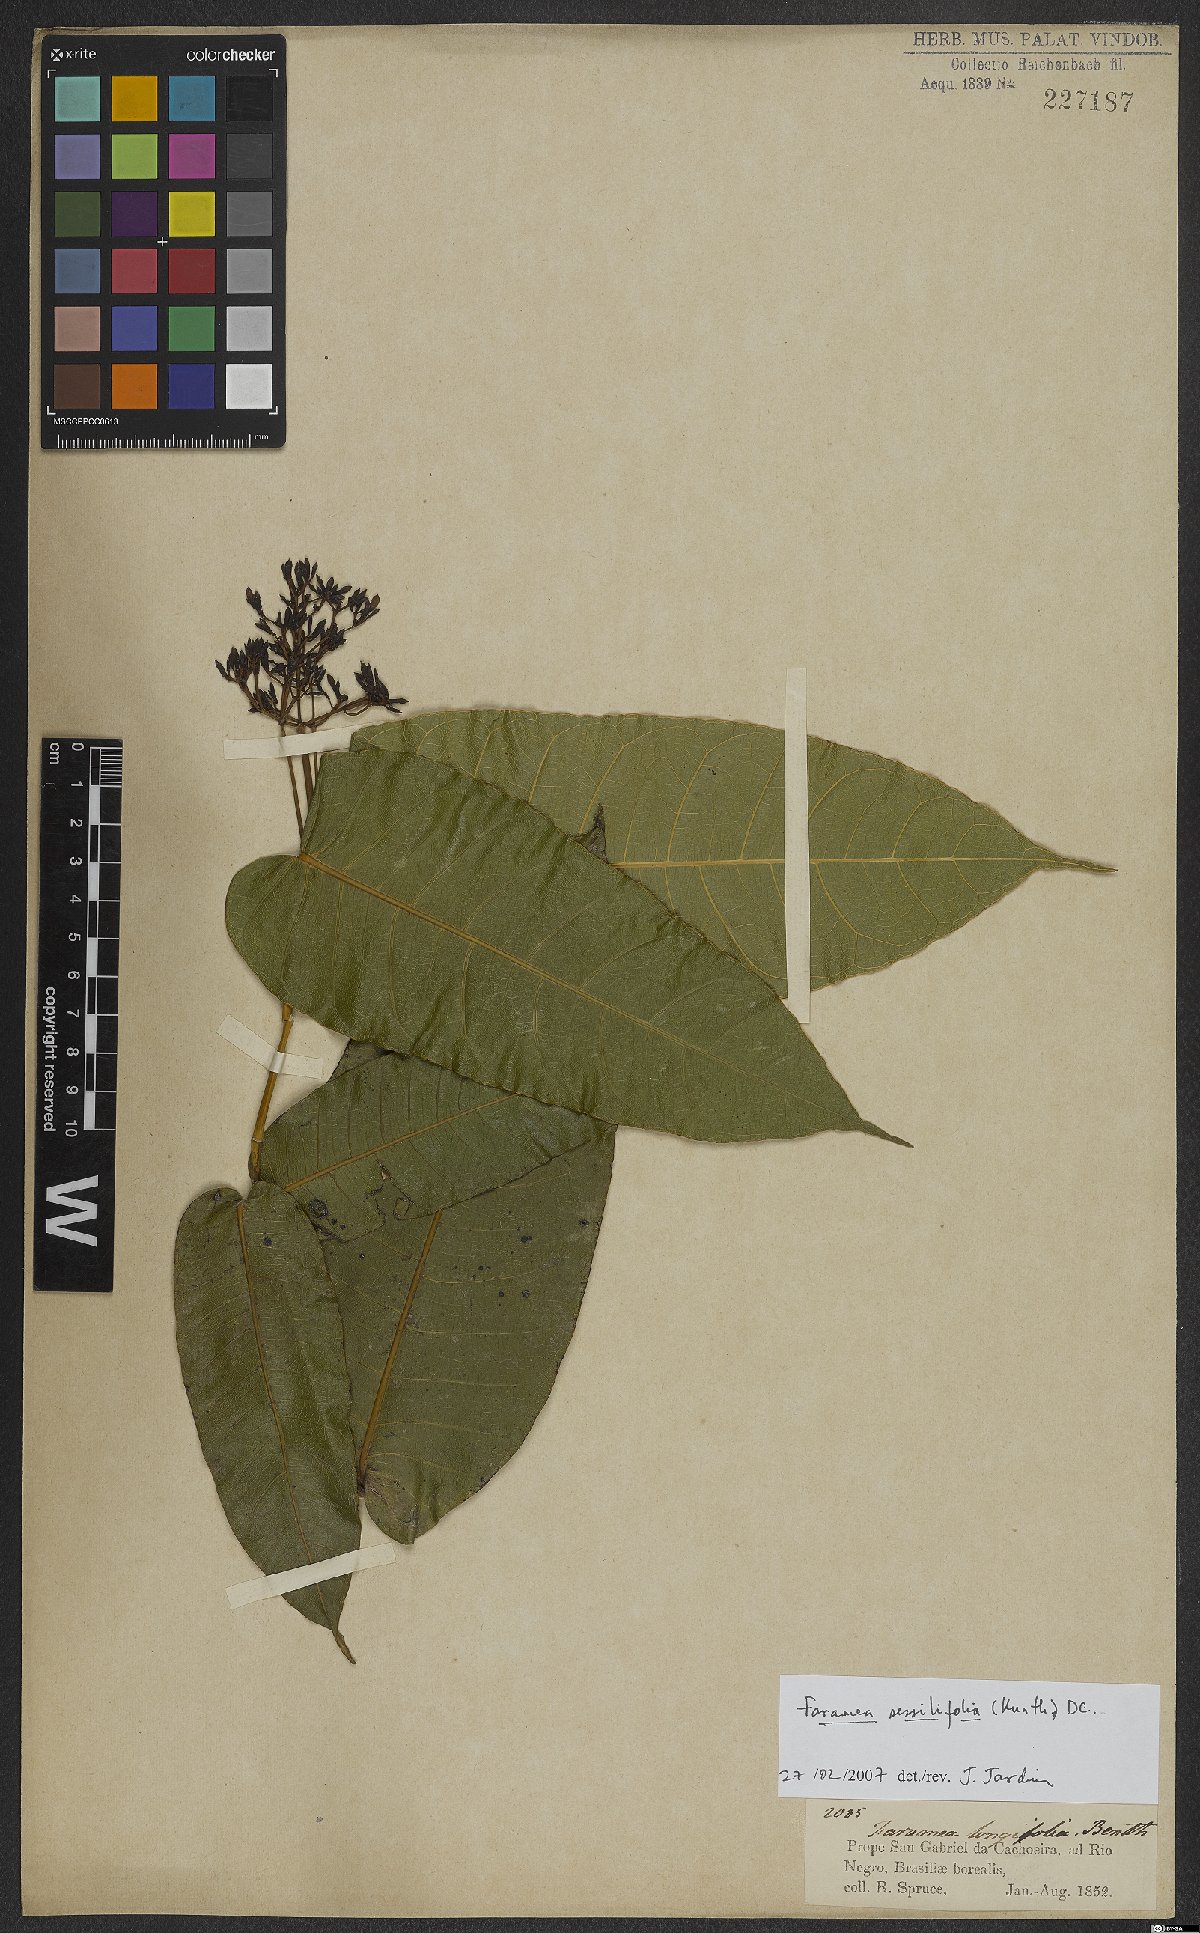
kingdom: Plantae
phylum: Tracheophyta
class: Magnoliopsida
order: Gentianales
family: Rubiaceae
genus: Faramea
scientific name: Faramea sessilifolia
